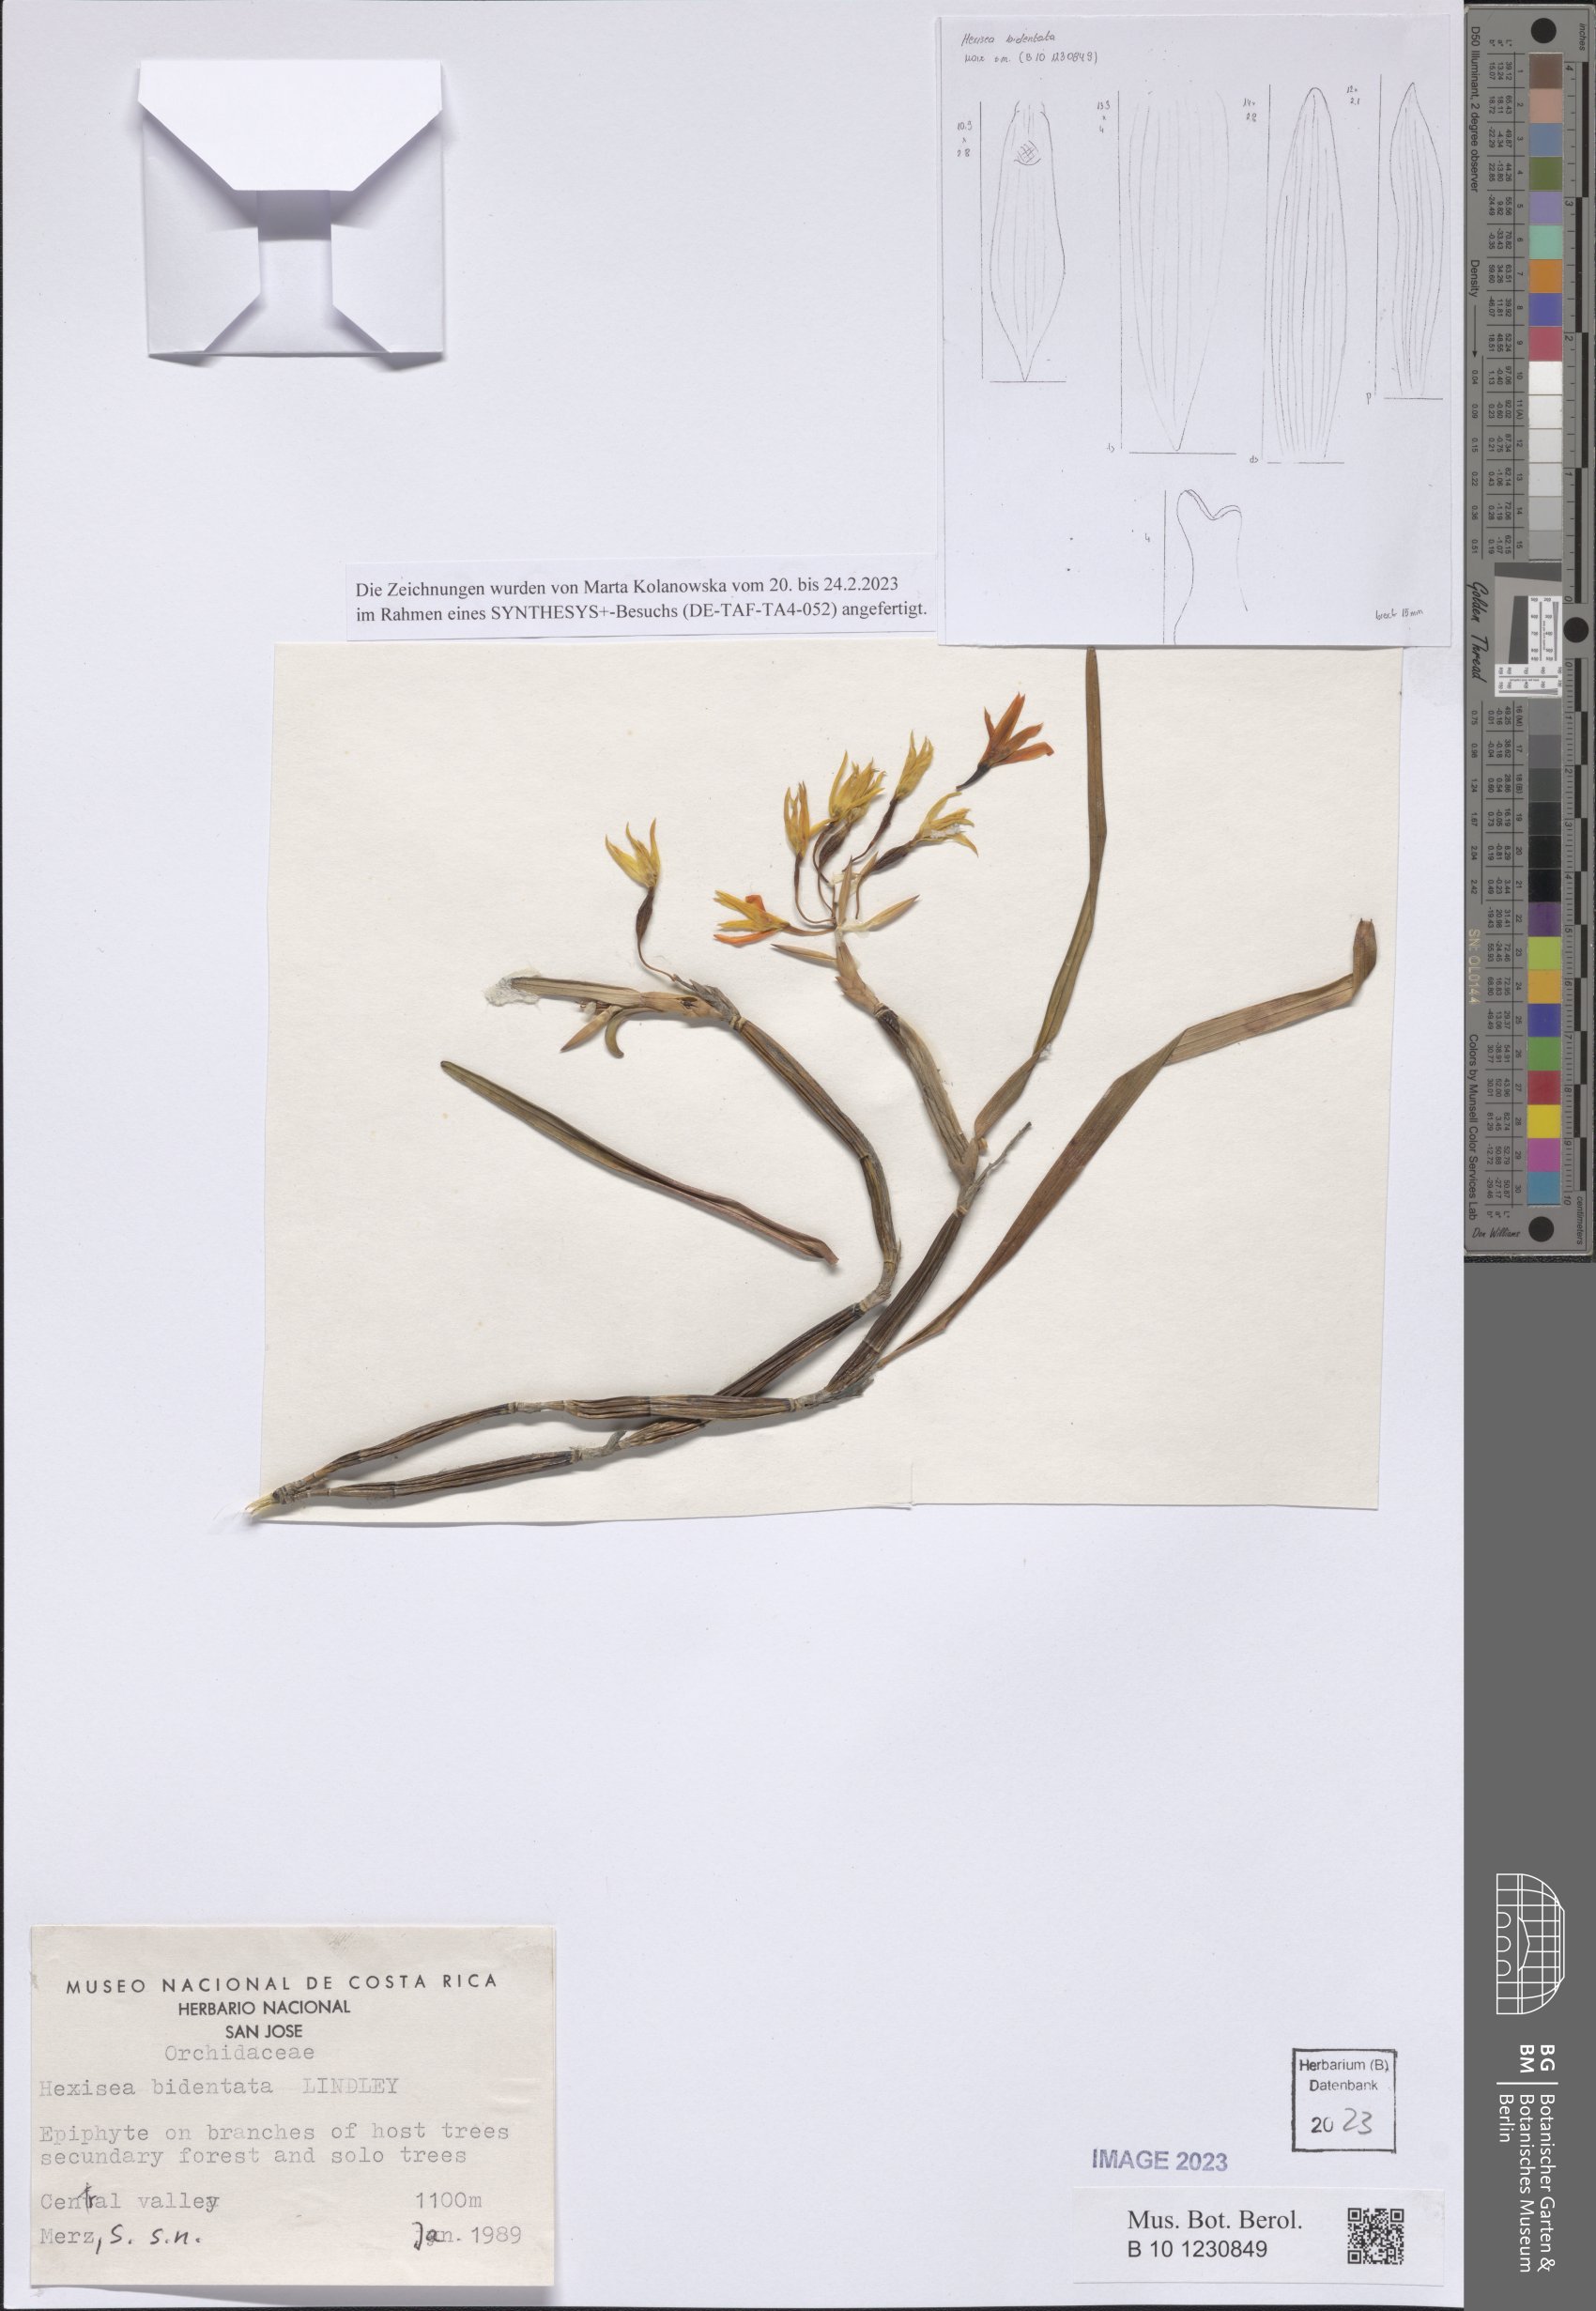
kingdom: Plantae
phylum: Tracheophyta
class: Liliopsida
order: Asparagales
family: Orchidaceae
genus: Scaphyglottis
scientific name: Scaphyglottis bidentata
